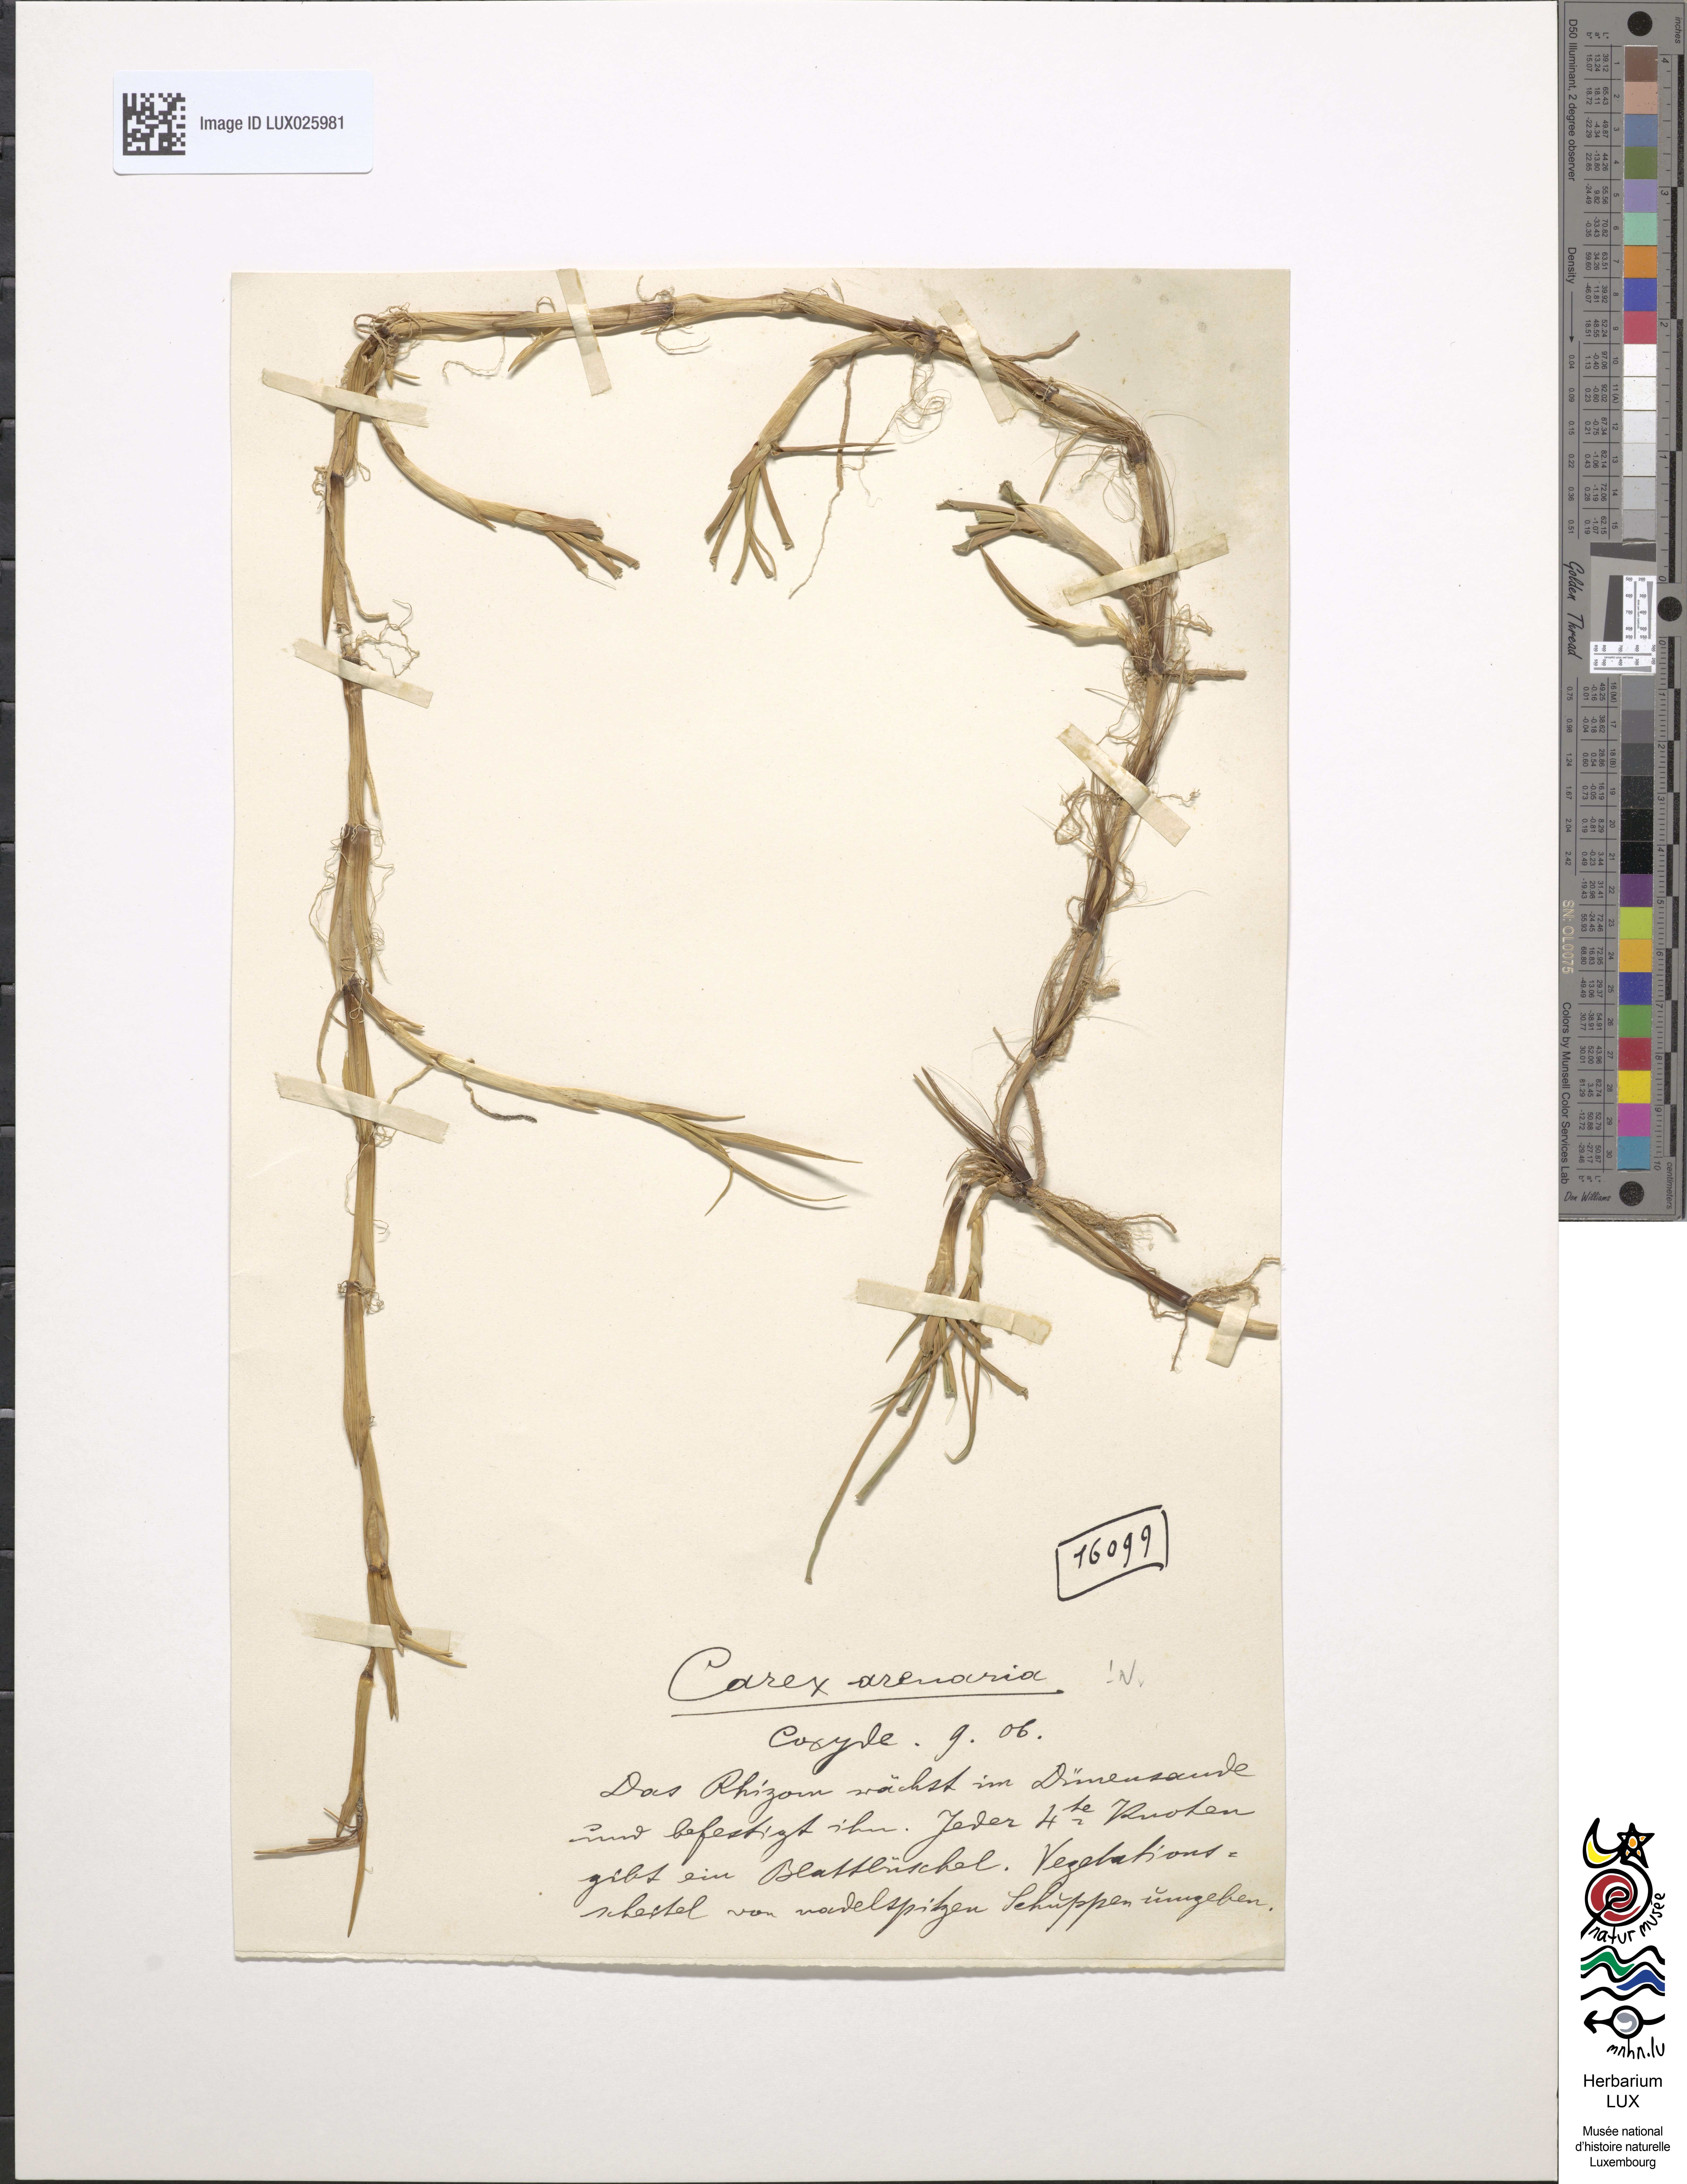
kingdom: Plantae
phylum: Tracheophyta
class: Liliopsida
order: Poales
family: Cyperaceae
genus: Carex
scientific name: Carex arenaria
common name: Sand sedge
